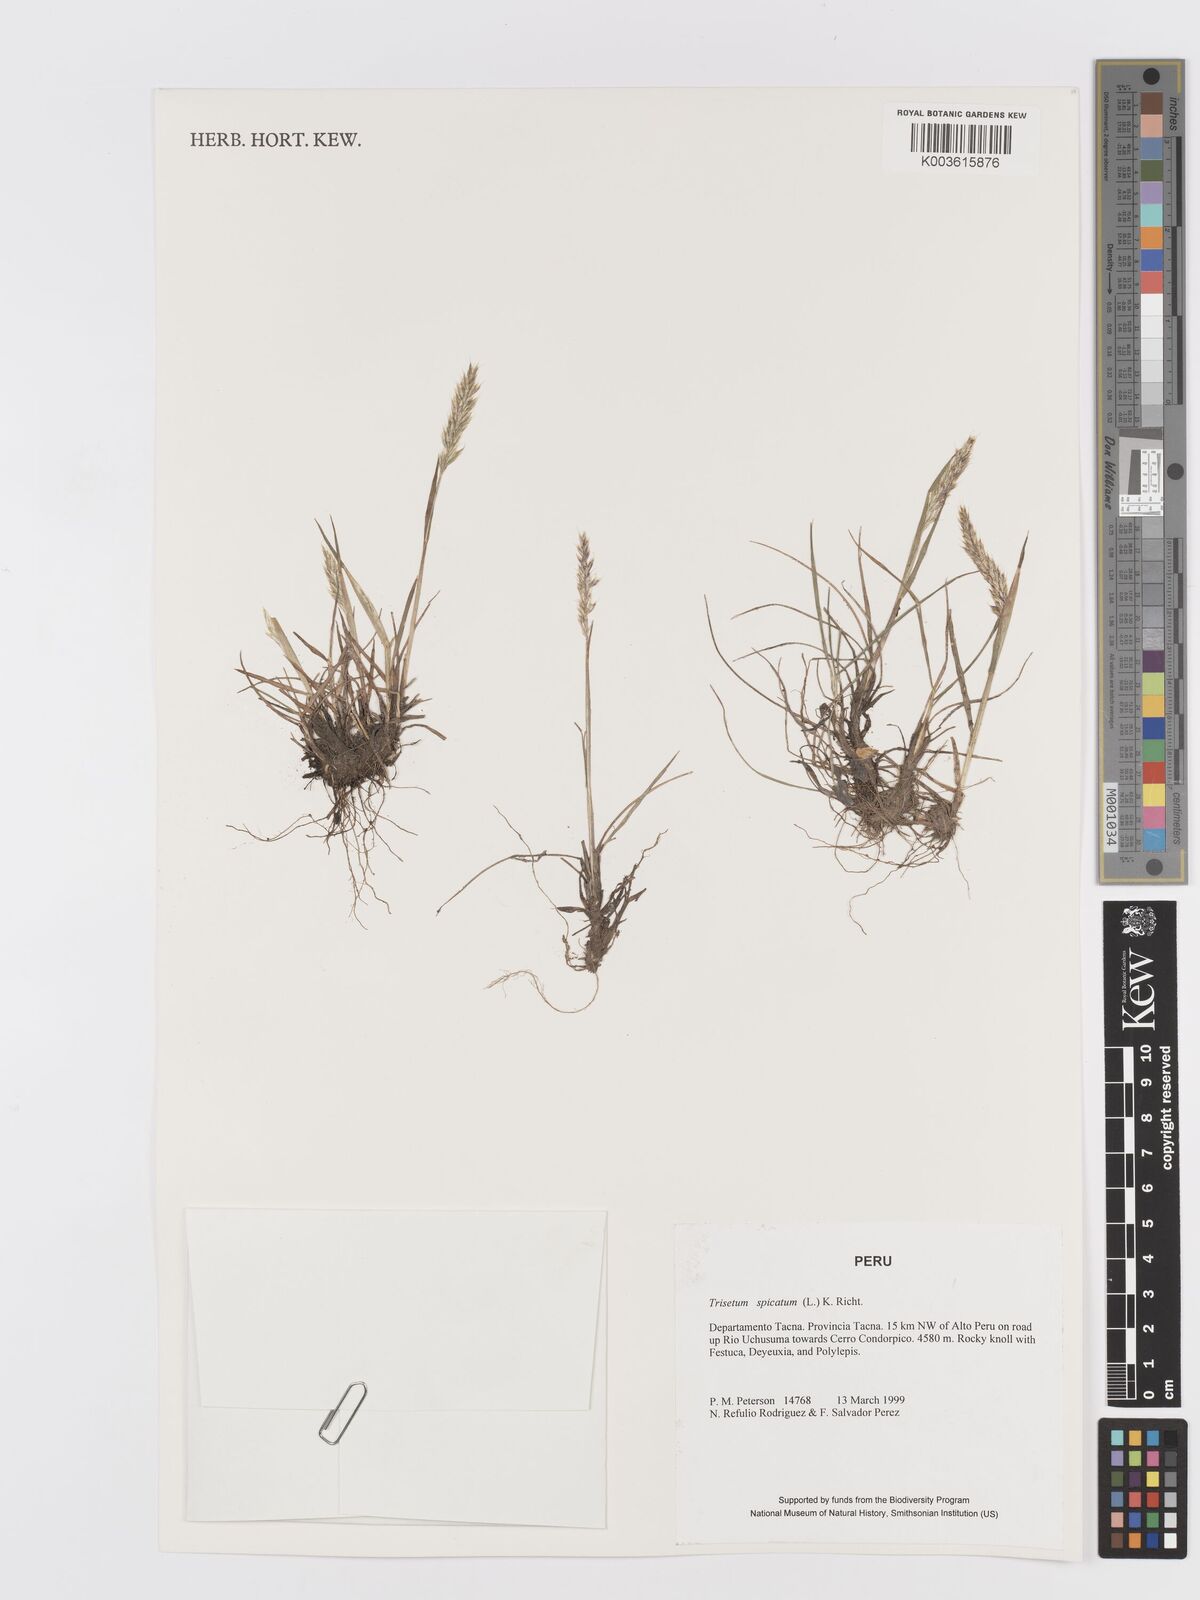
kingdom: Plantae
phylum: Tracheophyta
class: Liliopsida
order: Poales
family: Poaceae
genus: Koeleria
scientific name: Koeleria spicata
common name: Mountain trisetum
